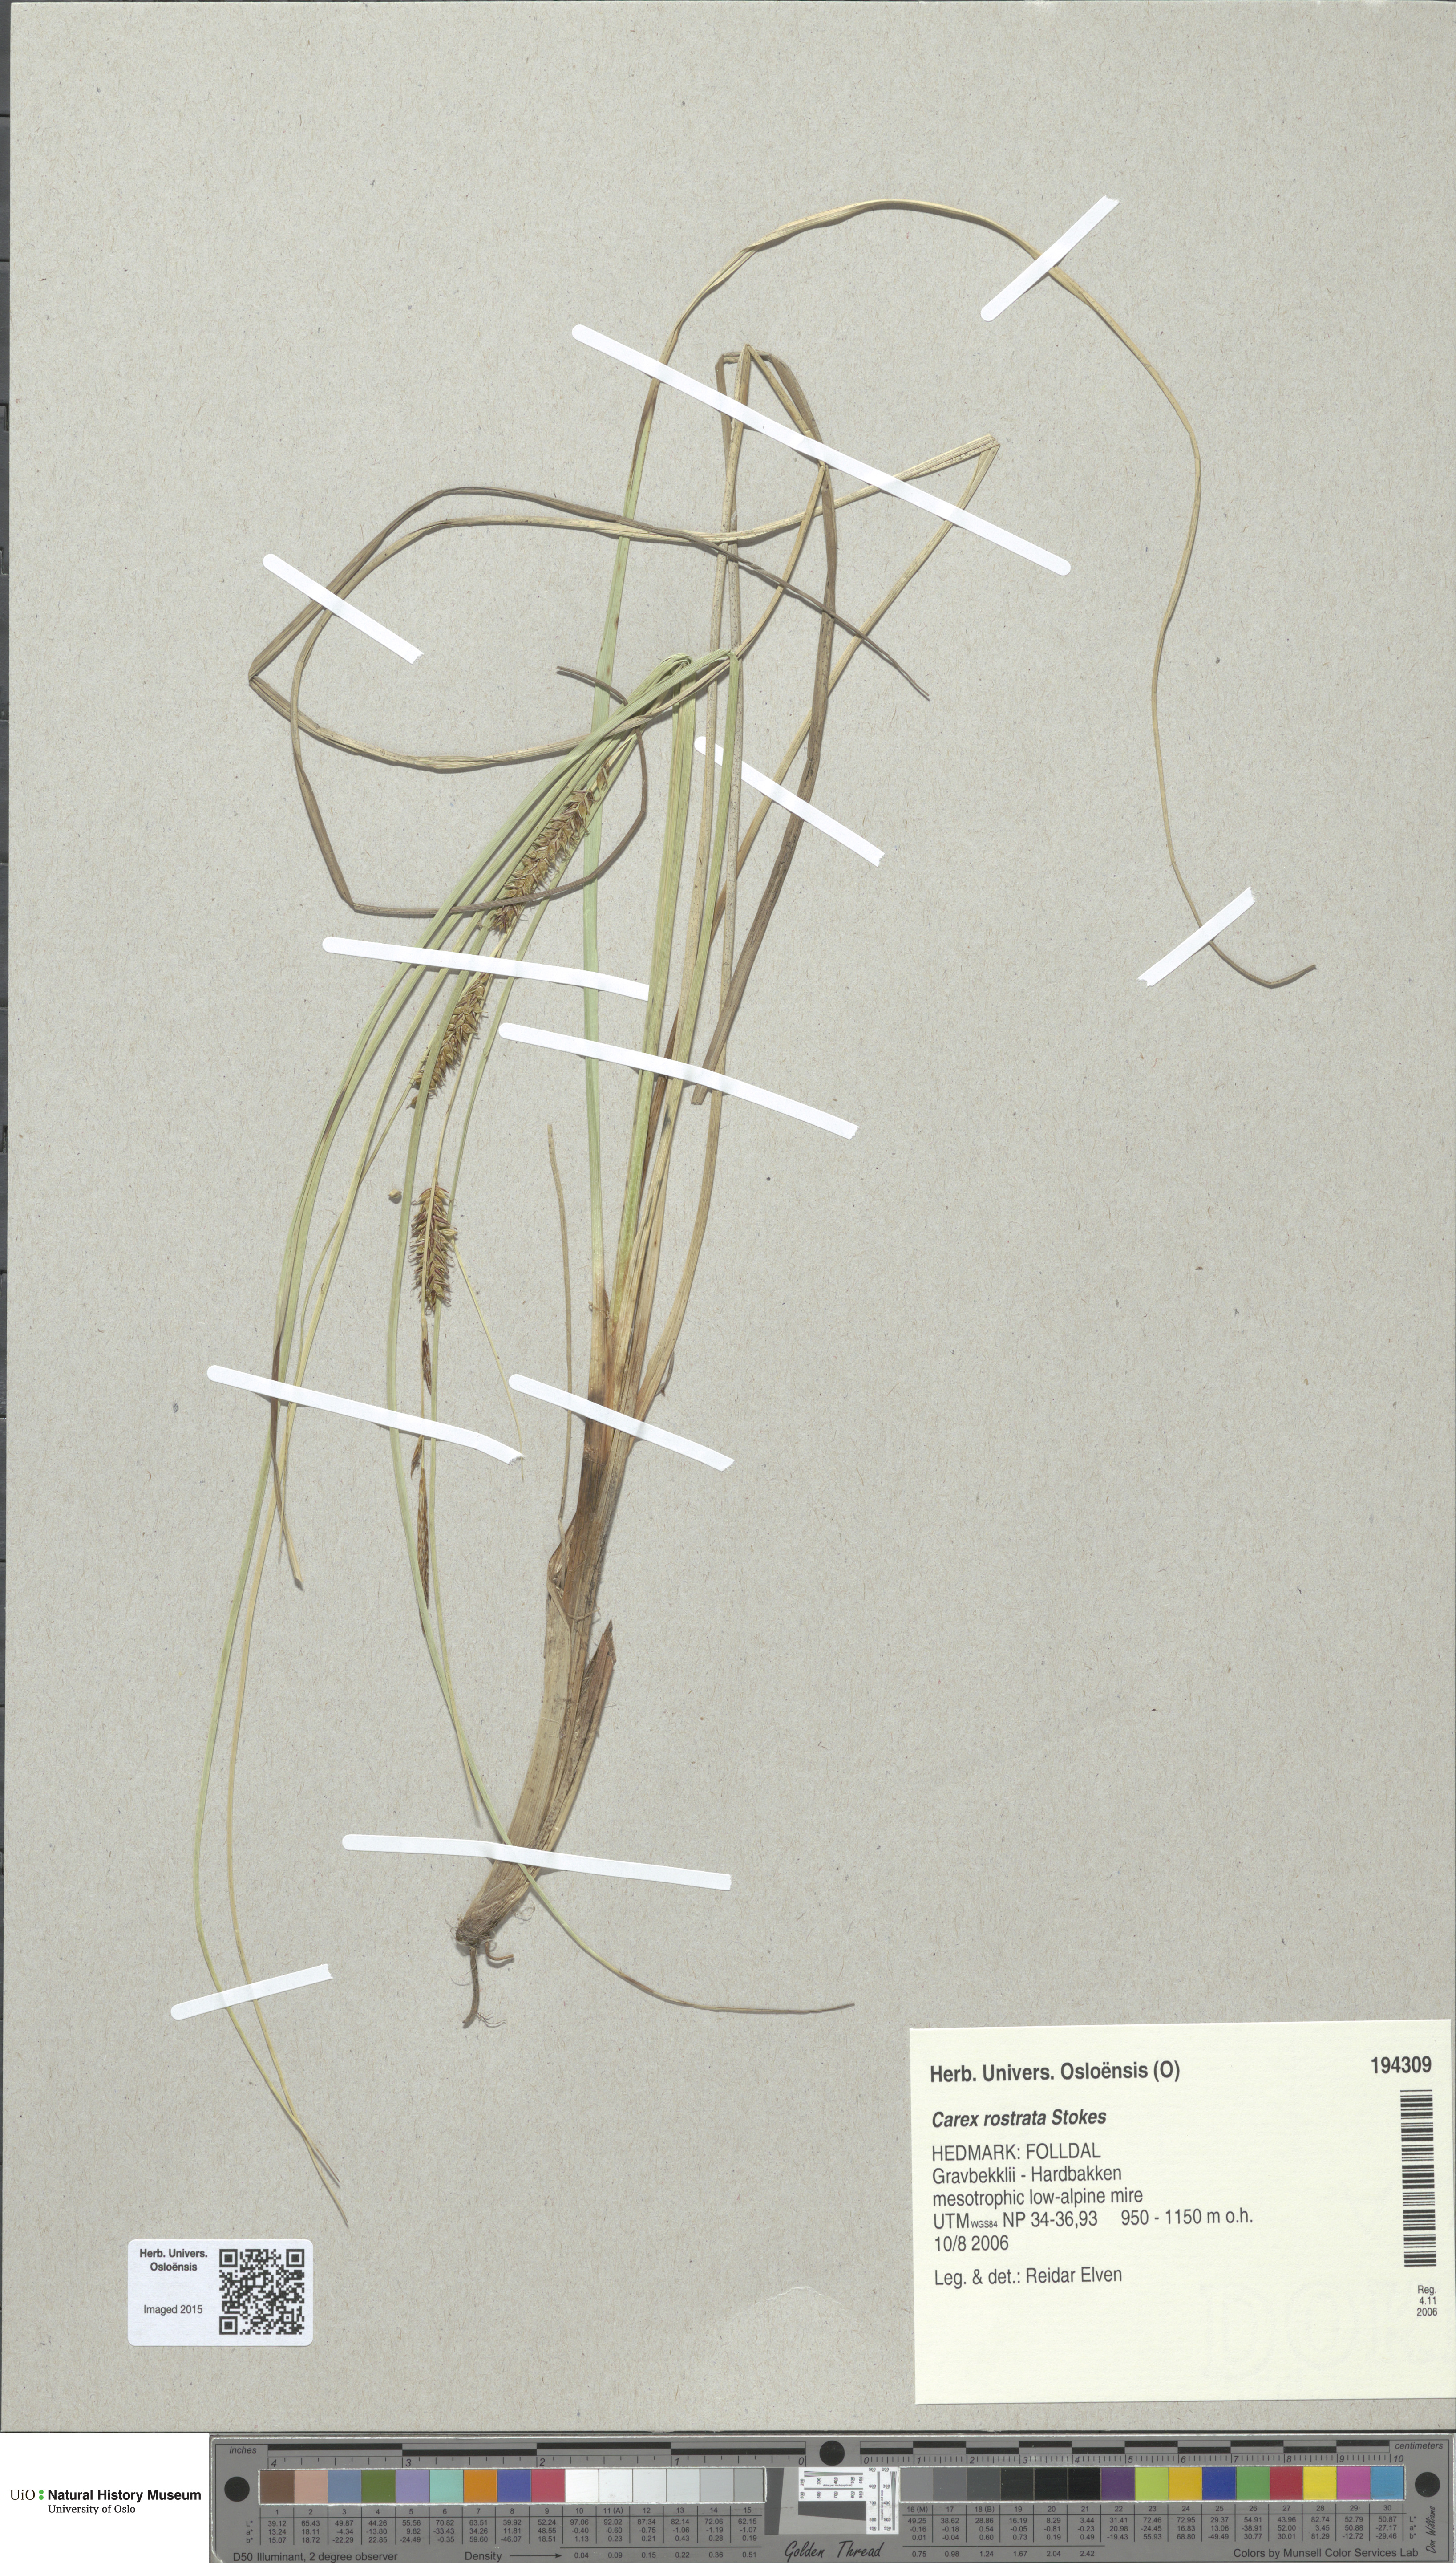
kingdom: Plantae
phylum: Tracheophyta
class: Liliopsida
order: Poales
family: Cyperaceae
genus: Carex
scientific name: Carex rostrata
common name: Bottle sedge
